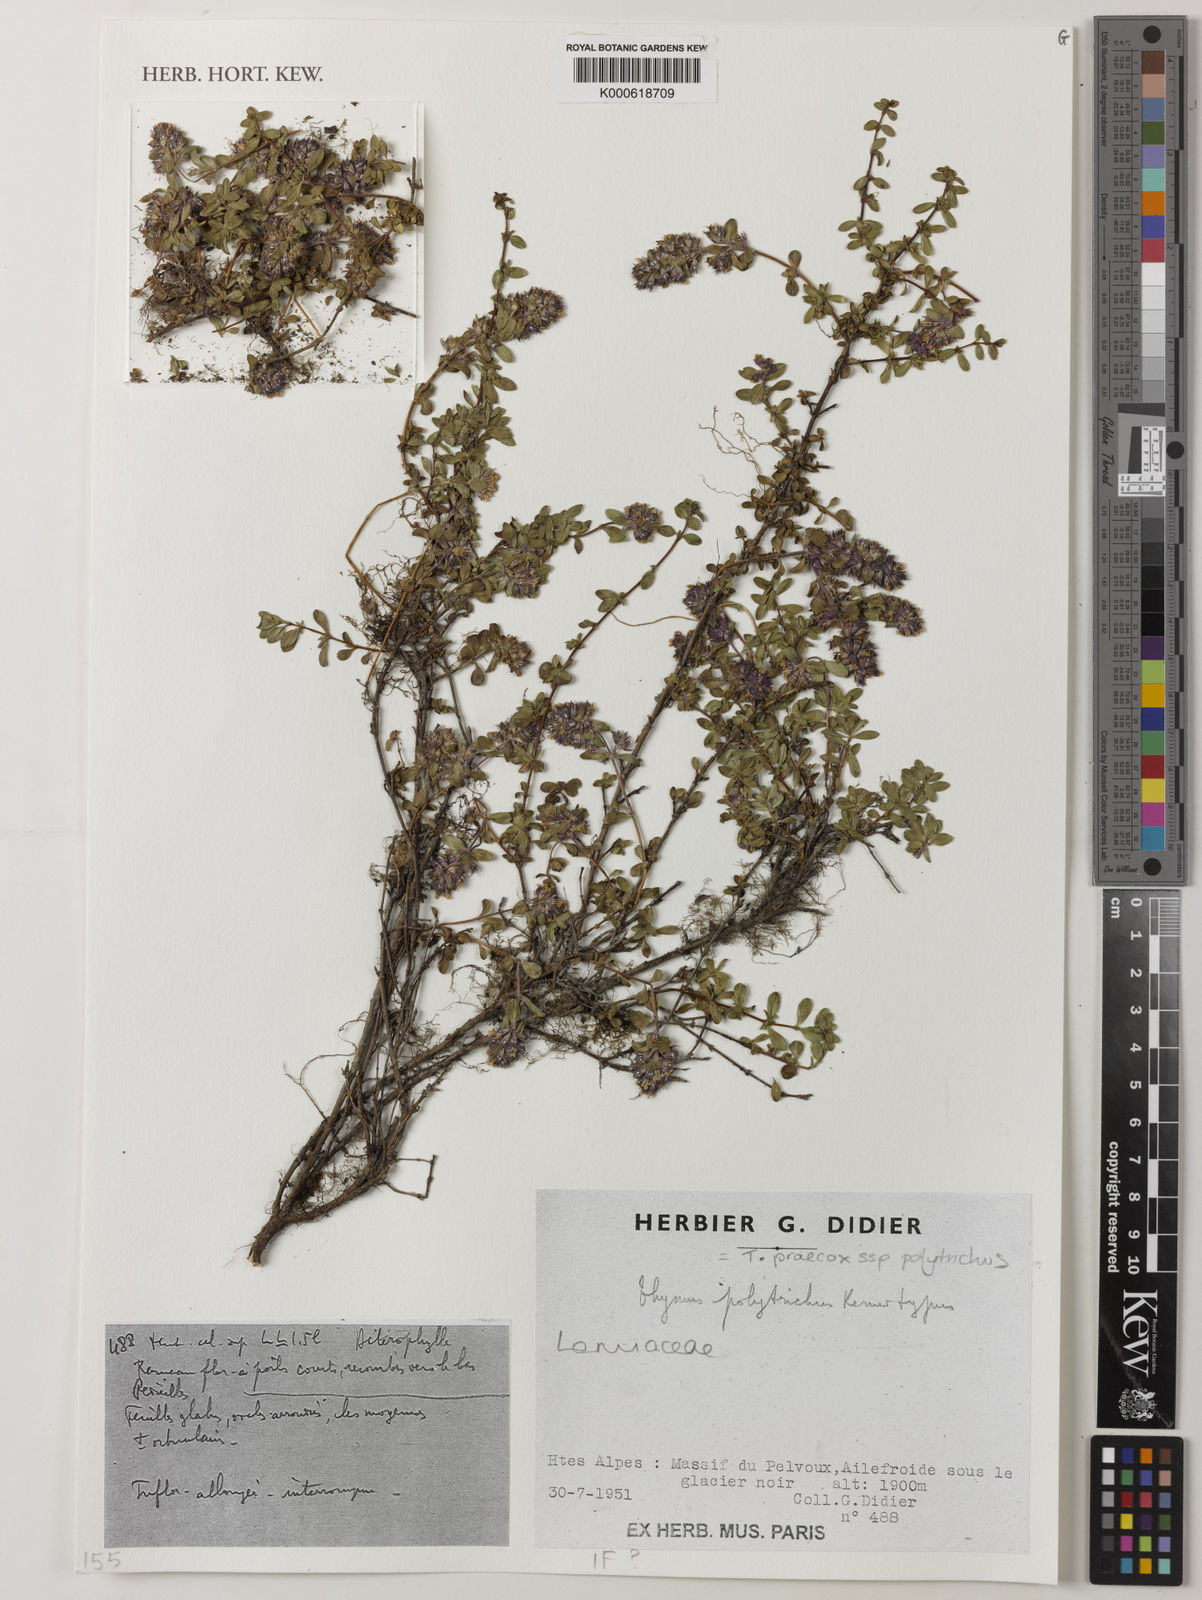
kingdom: Plantae
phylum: Tracheophyta
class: Magnoliopsida
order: Lamiales
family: Lamiaceae
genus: Thymus
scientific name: Thymus praecox
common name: Wild thyme
